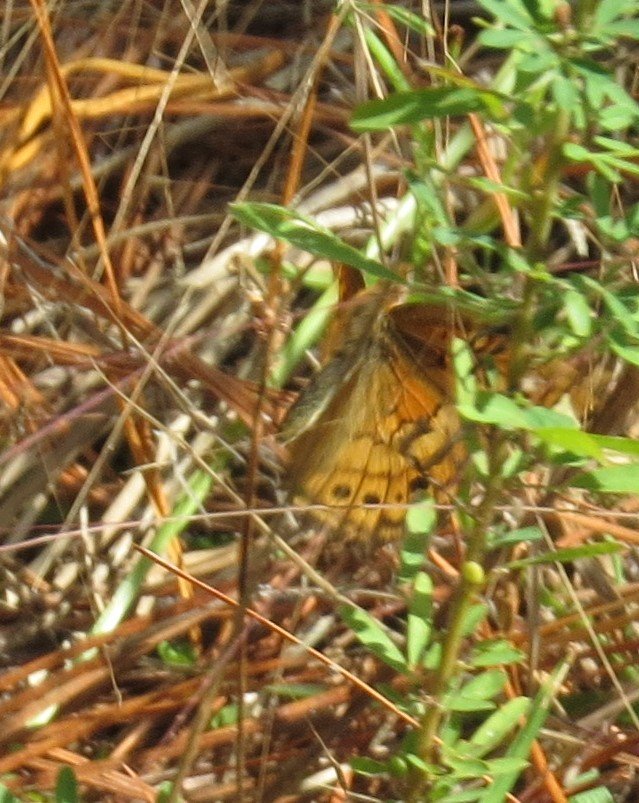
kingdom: Animalia
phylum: Arthropoda
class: Insecta
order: Lepidoptera
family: Nymphalidae
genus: Euptoieta
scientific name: Euptoieta claudia
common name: Variegated Fritillary
